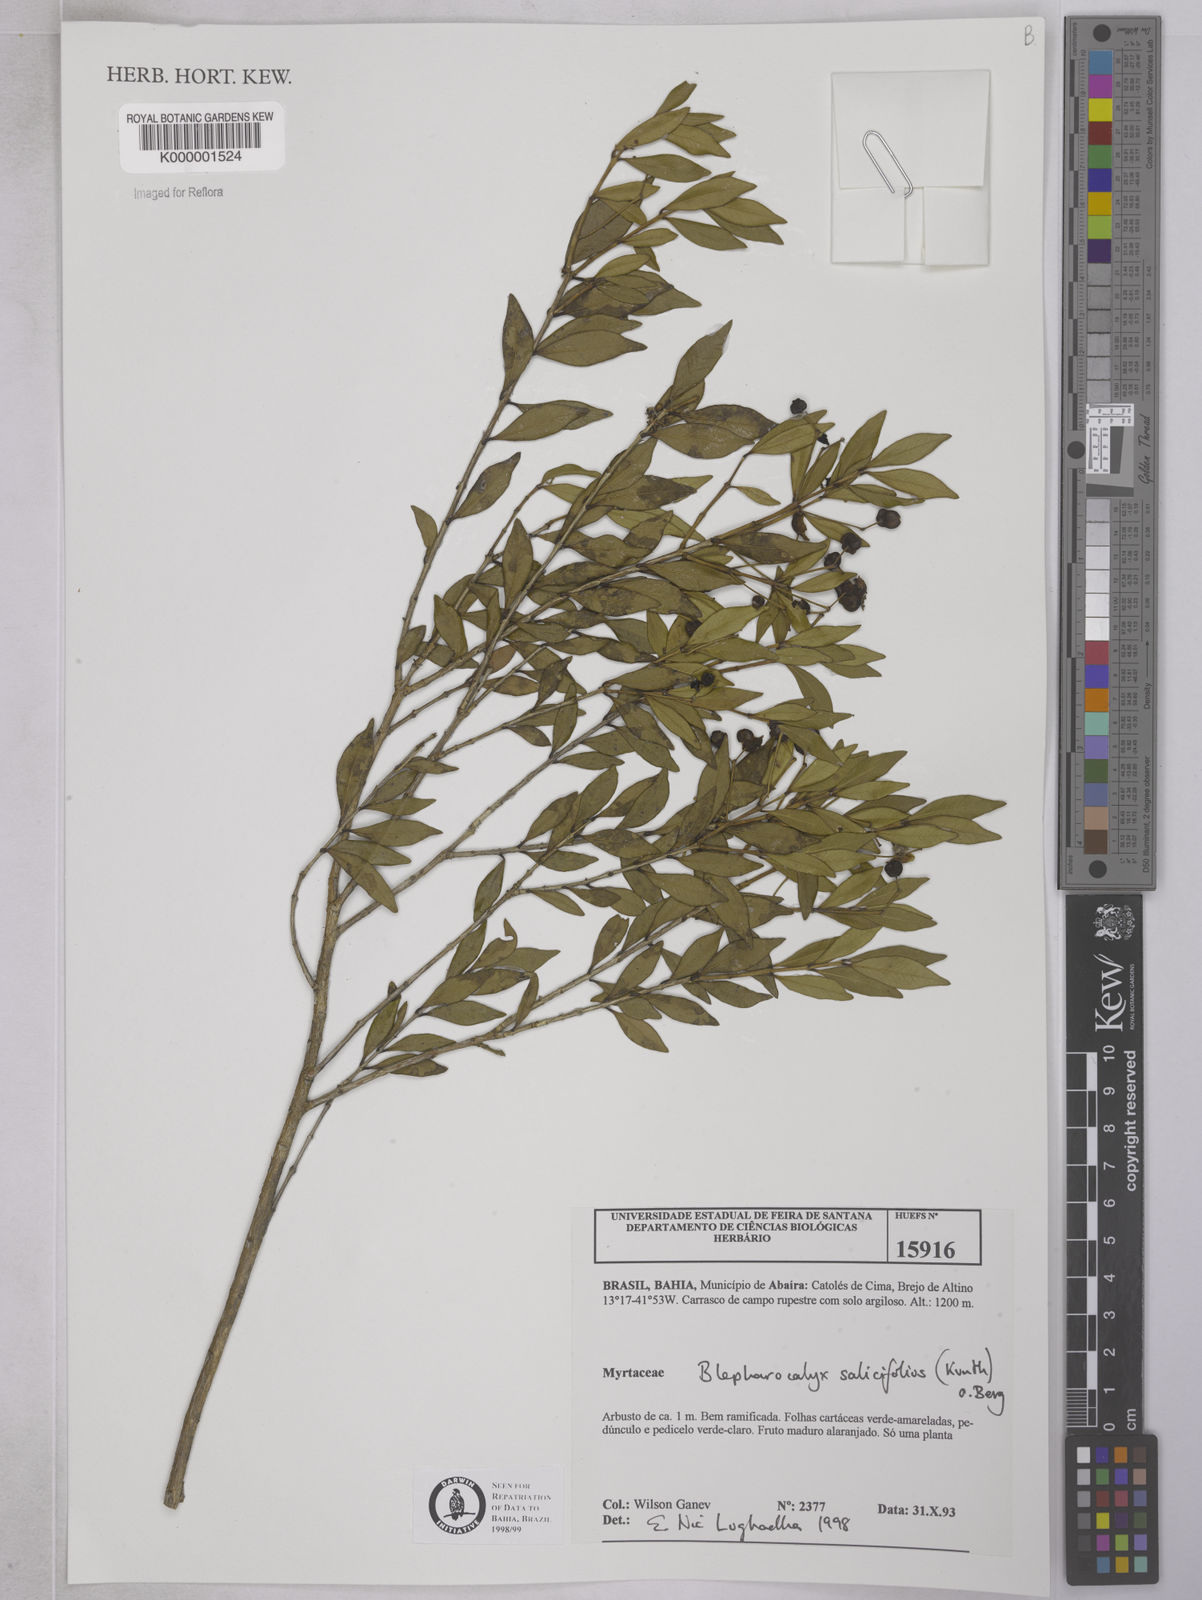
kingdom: Plantae
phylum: Tracheophyta
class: Magnoliopsida
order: Myrtales
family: Myrtaceae
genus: Blepharocalyx
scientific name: Blepharocalyx salicifolius
